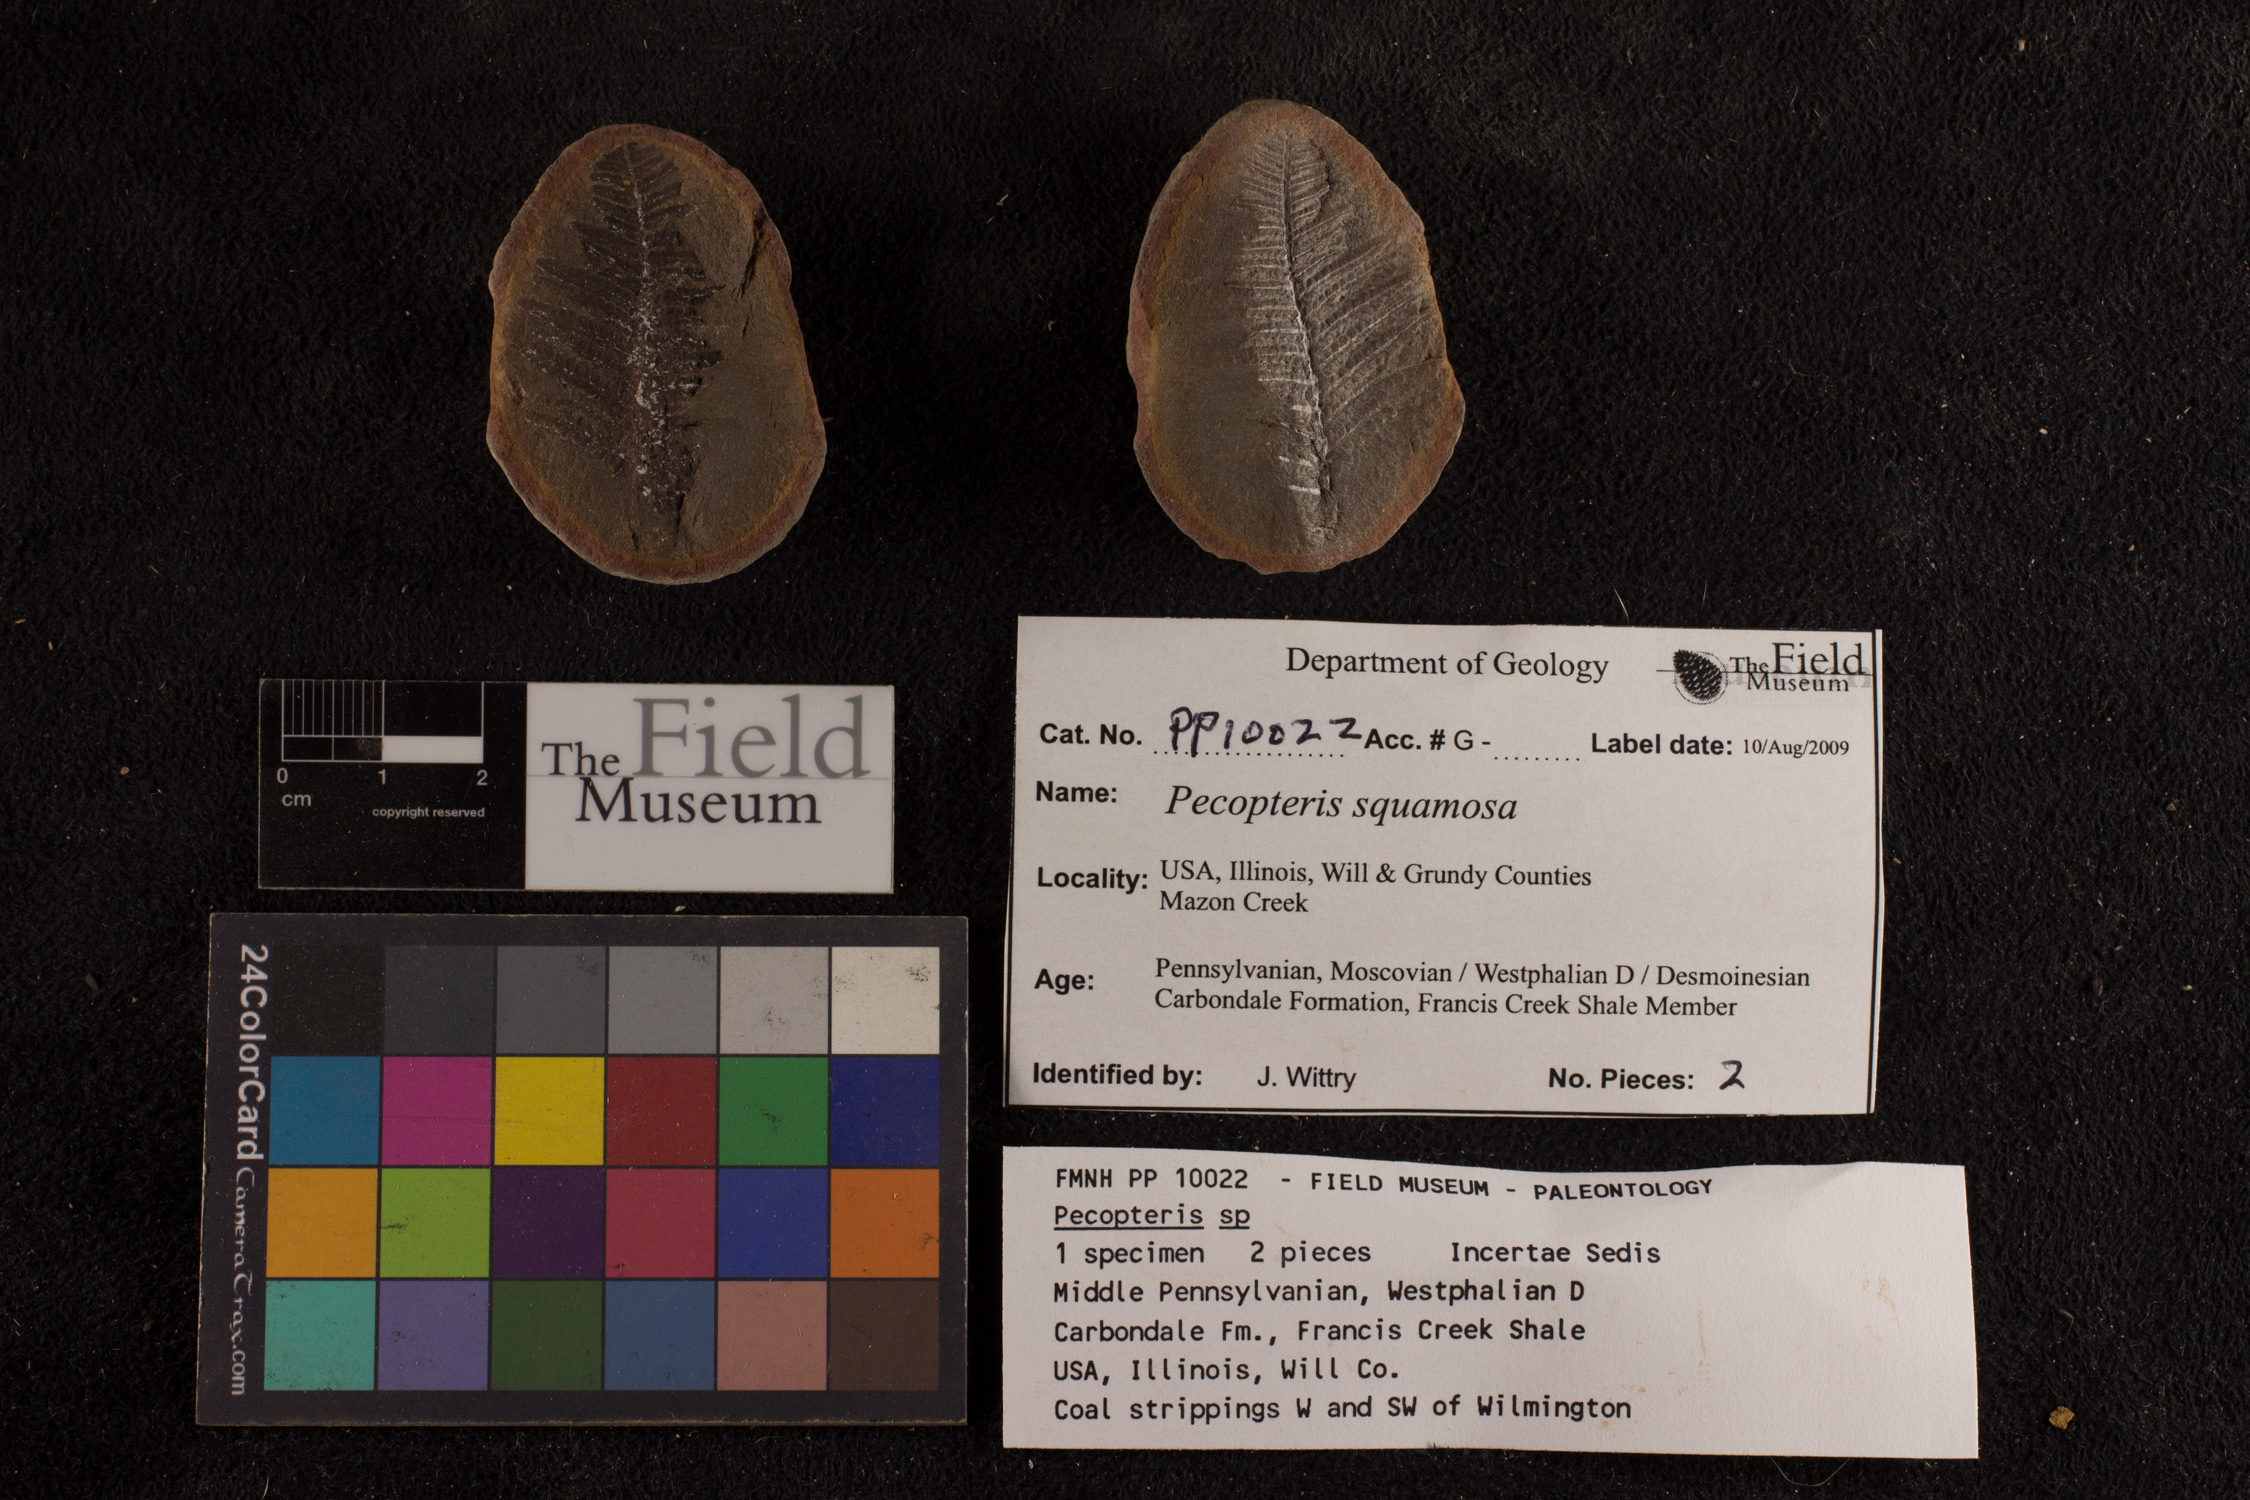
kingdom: Plantae
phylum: Tracheophyta
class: Polypodiopsida
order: Marattiales
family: Asterothecaceae
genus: Pecopteris
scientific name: Pecopteris
